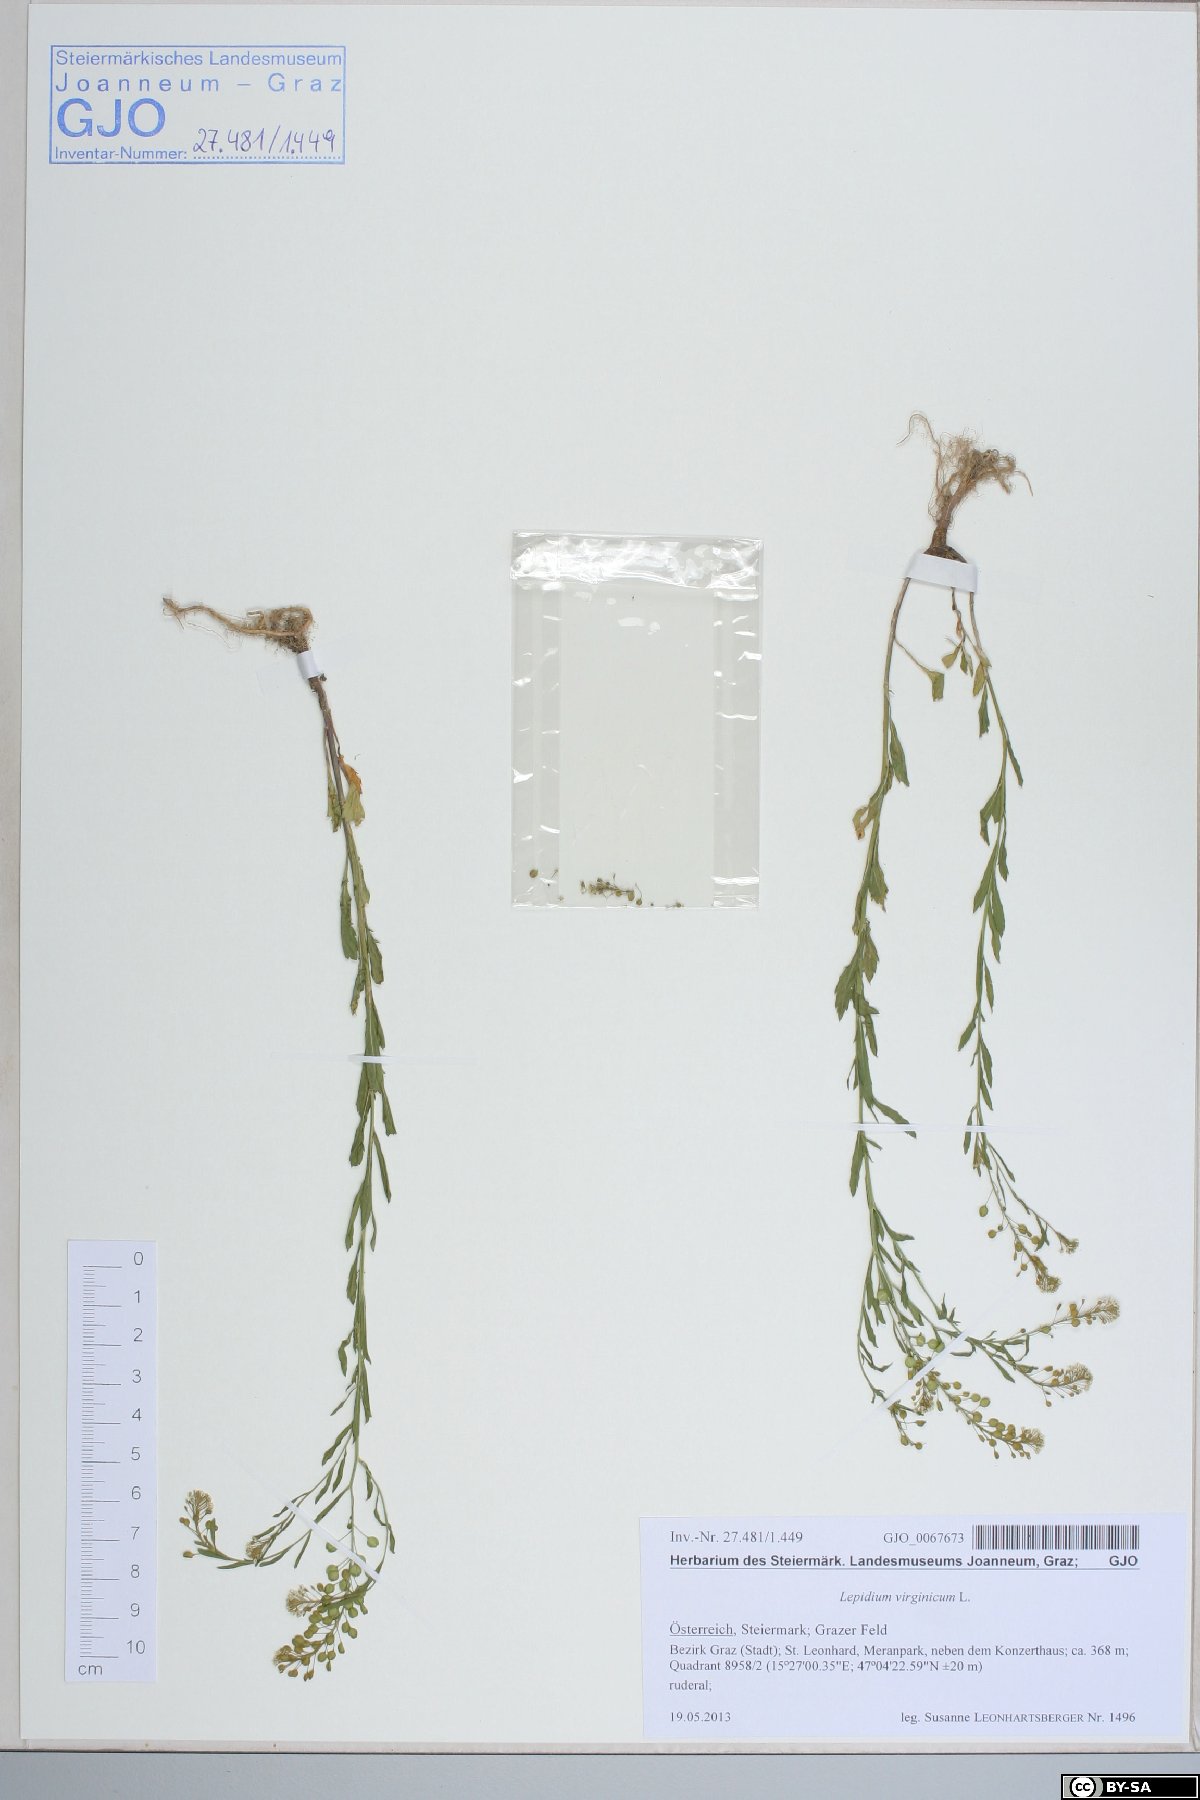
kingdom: Plantae
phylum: Tracheophyta
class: Magnoliopsida
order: Brassicales
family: Brassicaceae
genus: Lepidium
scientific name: Lepidium virginicum
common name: Least pepperwort
